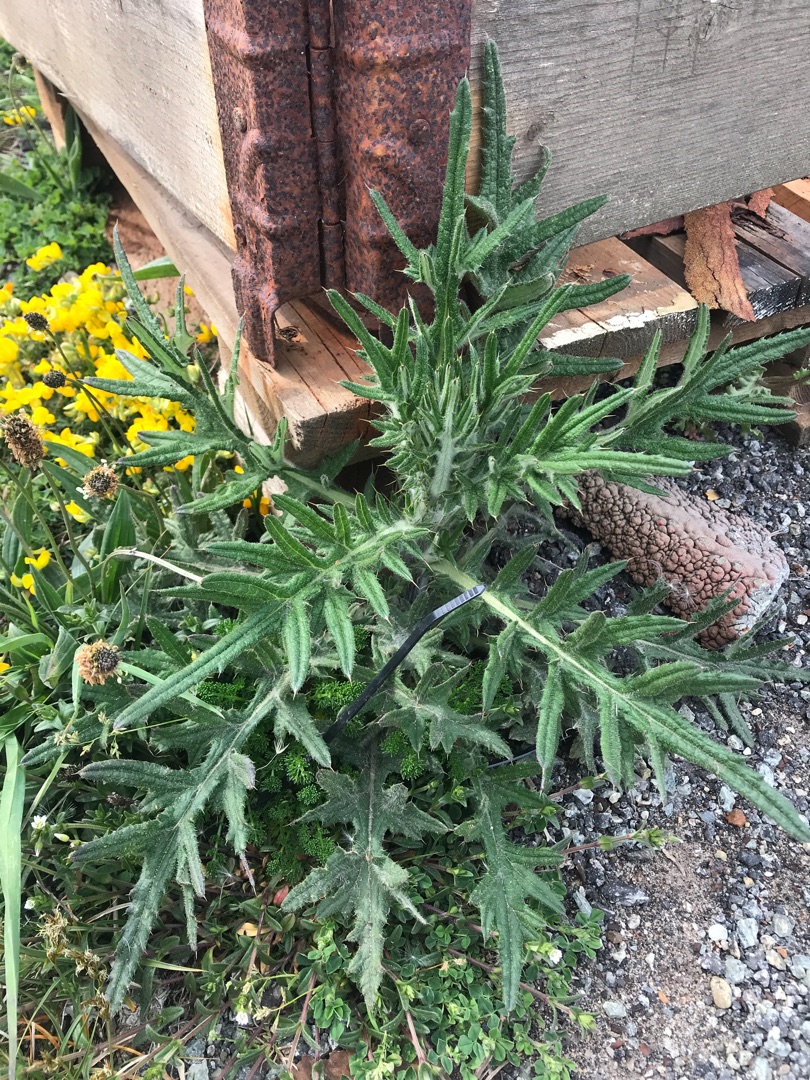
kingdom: Plantae
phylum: Tracheophyta
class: Magnoliopsida
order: Asterales
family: Asteraceae
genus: Cirsium
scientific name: Cirsium vulgare
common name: Horse-tidsel
